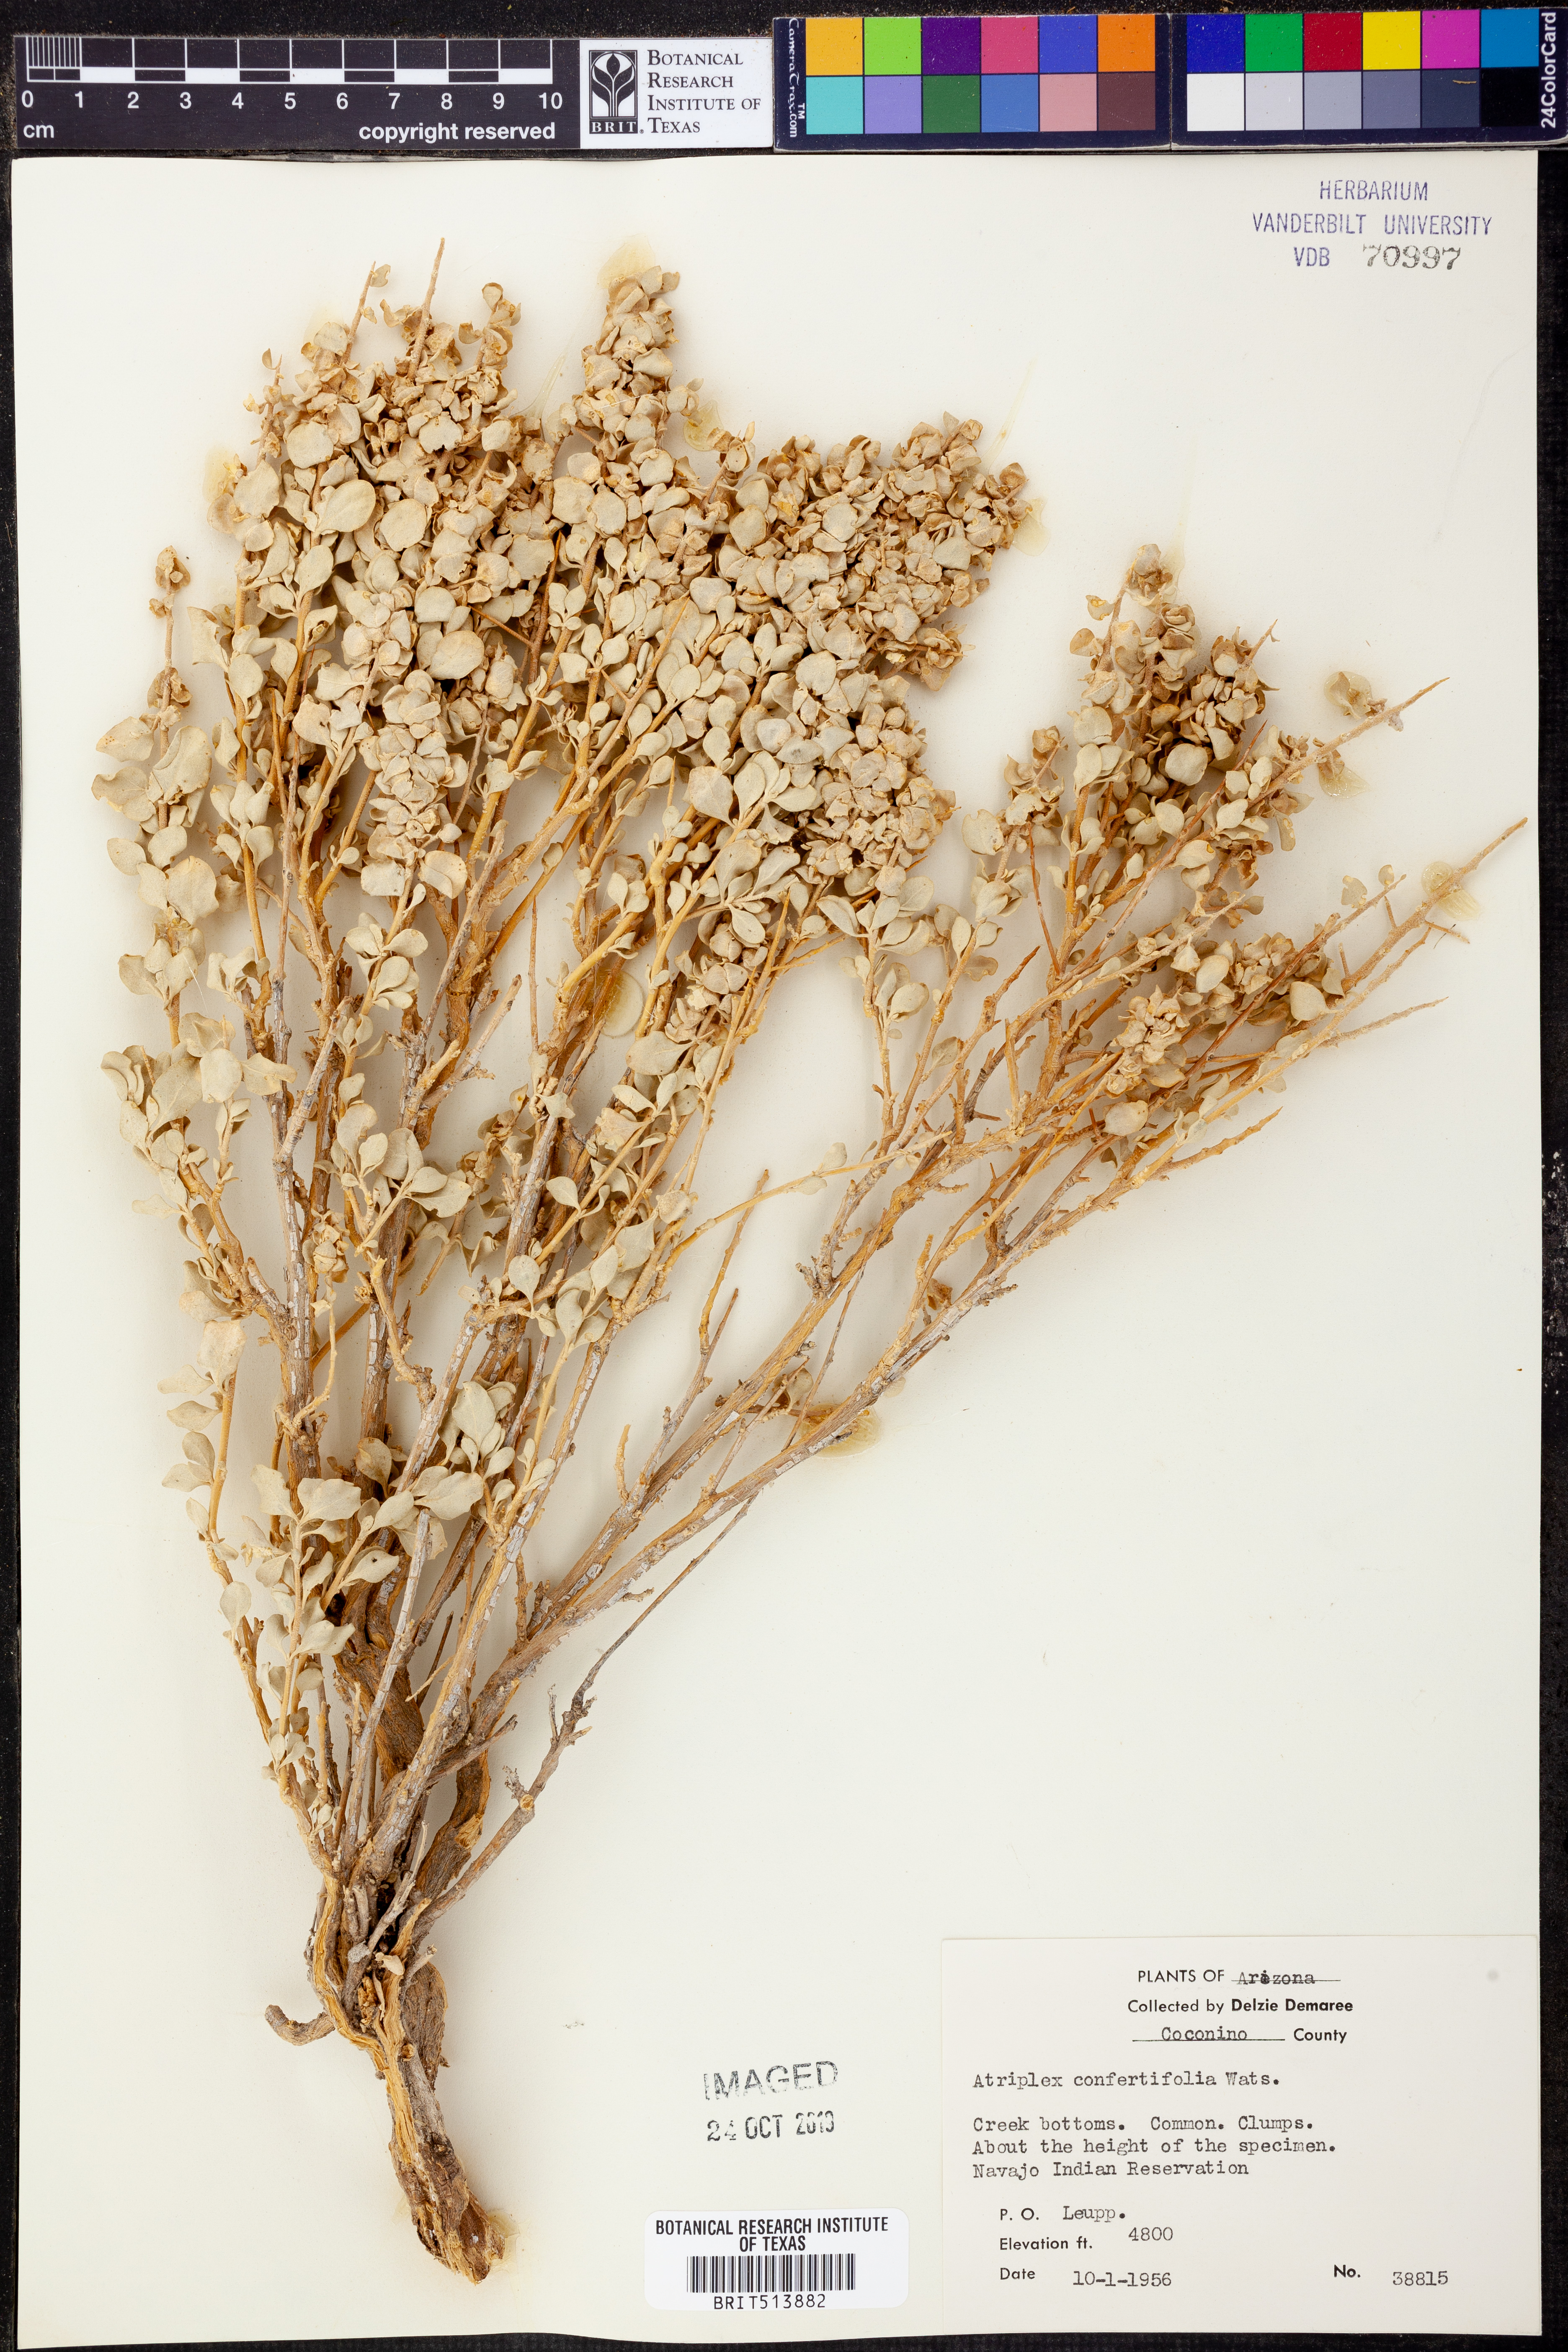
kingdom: Plantae
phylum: Tracheophyta
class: Magnoliopsida
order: Caryophyllales
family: Amaranthaceae
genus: Atriplex
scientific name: Atriplex confertifolia
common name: Shadscale
